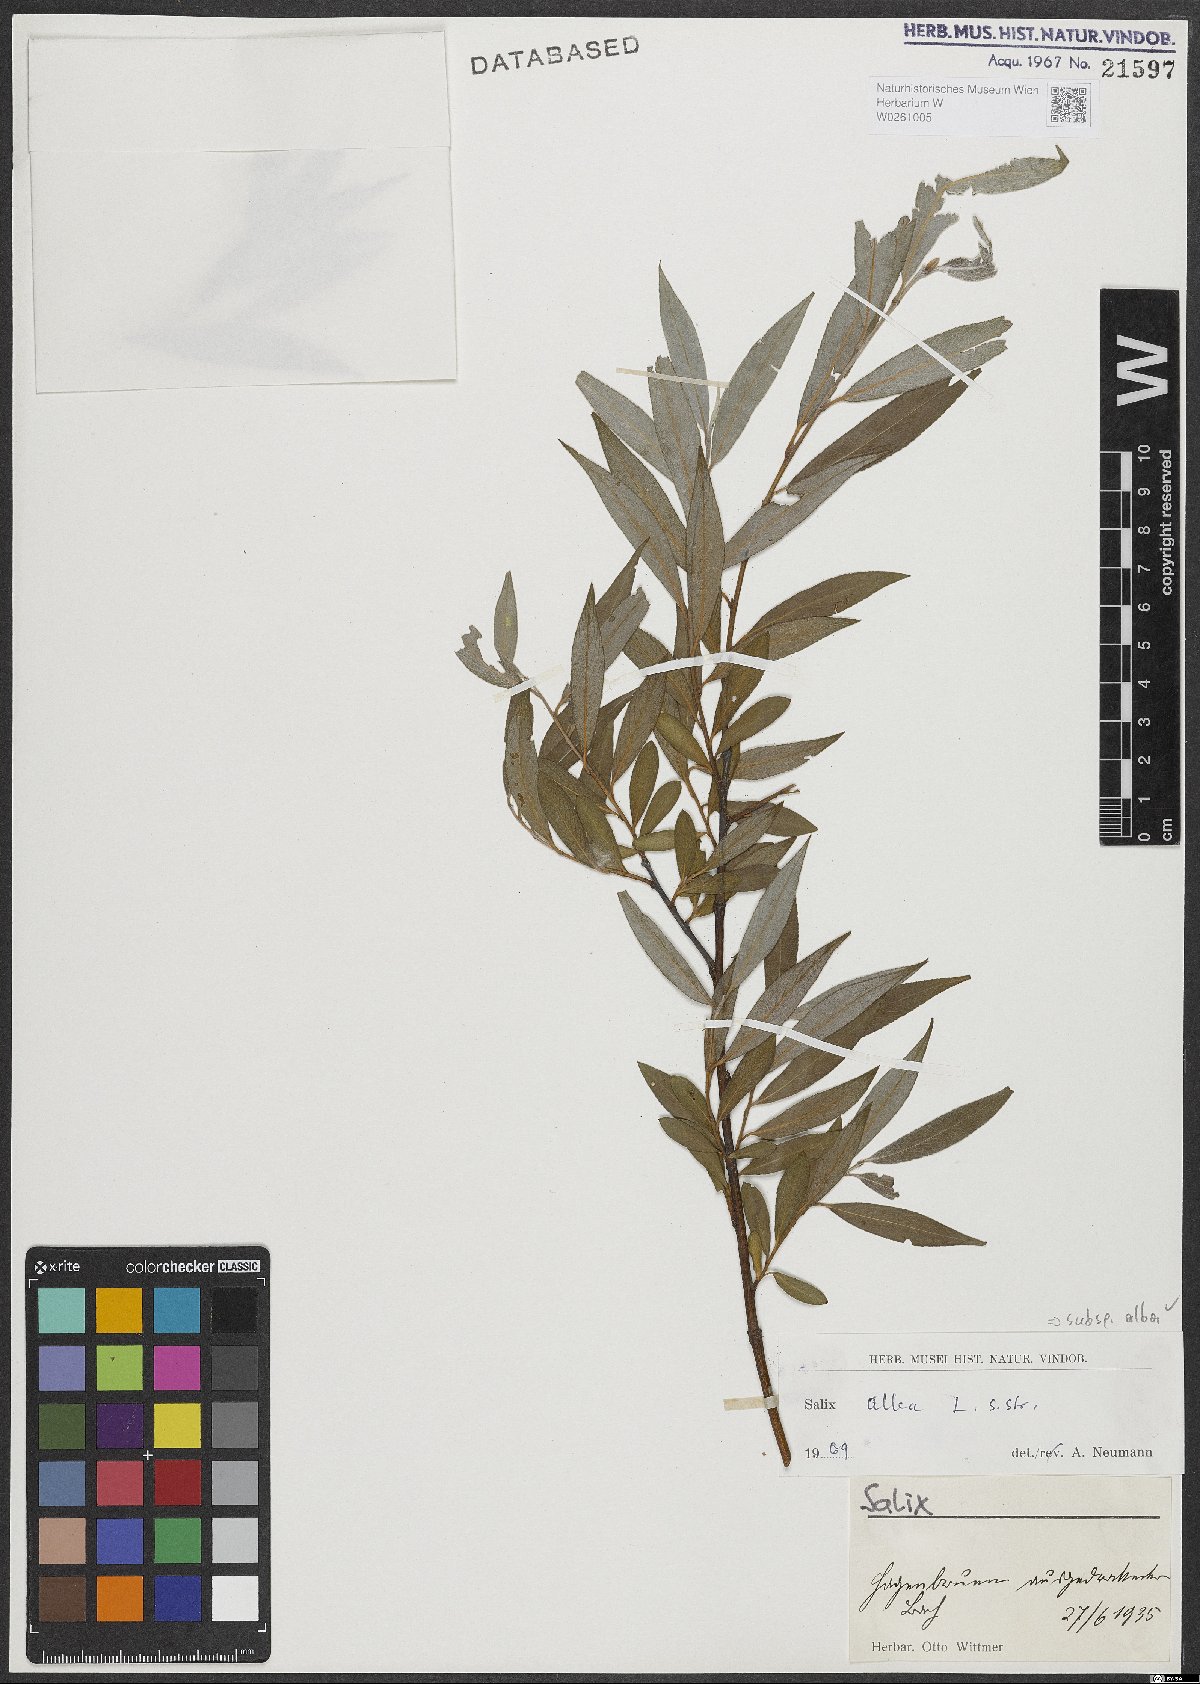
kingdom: Plantae
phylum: Tracheophyta
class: Magnoliopsida
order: Malpighiales
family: Salicaceae
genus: Salix
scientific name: Salix alba
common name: White willow
